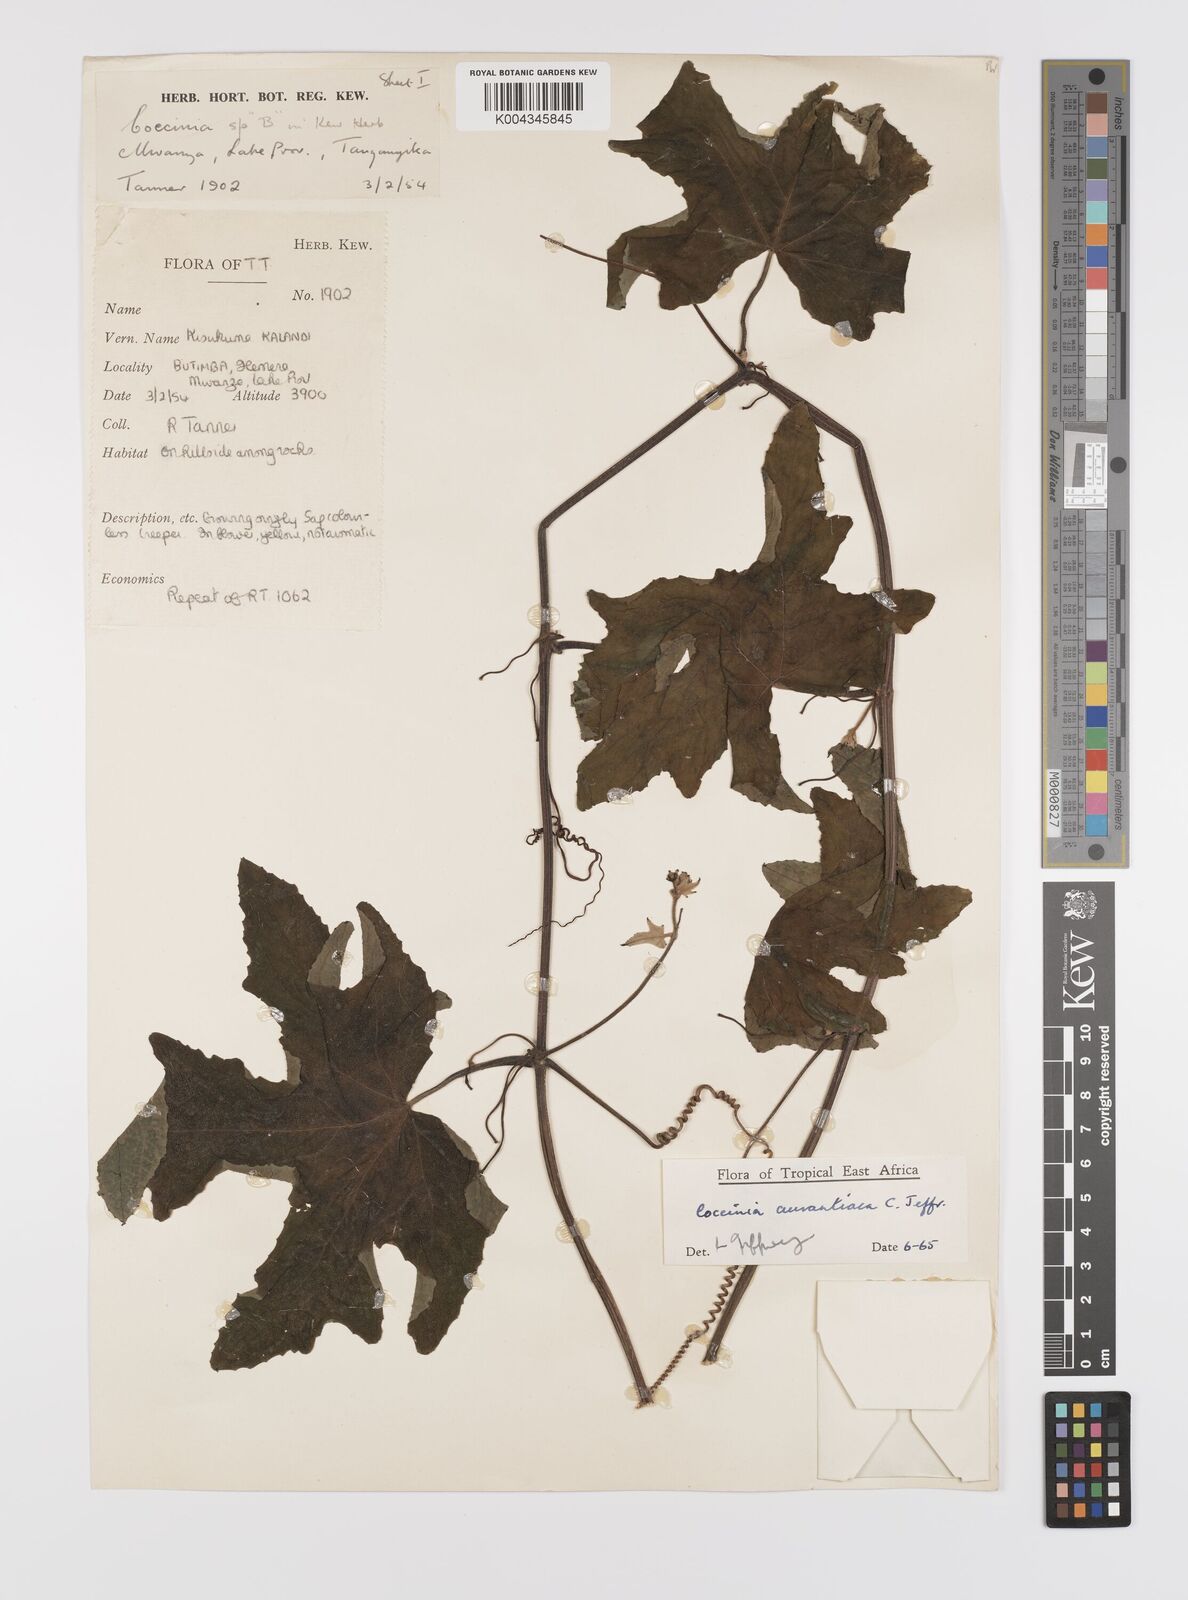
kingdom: Plantae
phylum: Tracheophyta
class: Magnoliopsida
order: Cucurbitales
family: Cucurbitaceae
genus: Coccinia
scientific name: Coccinia adoensis
